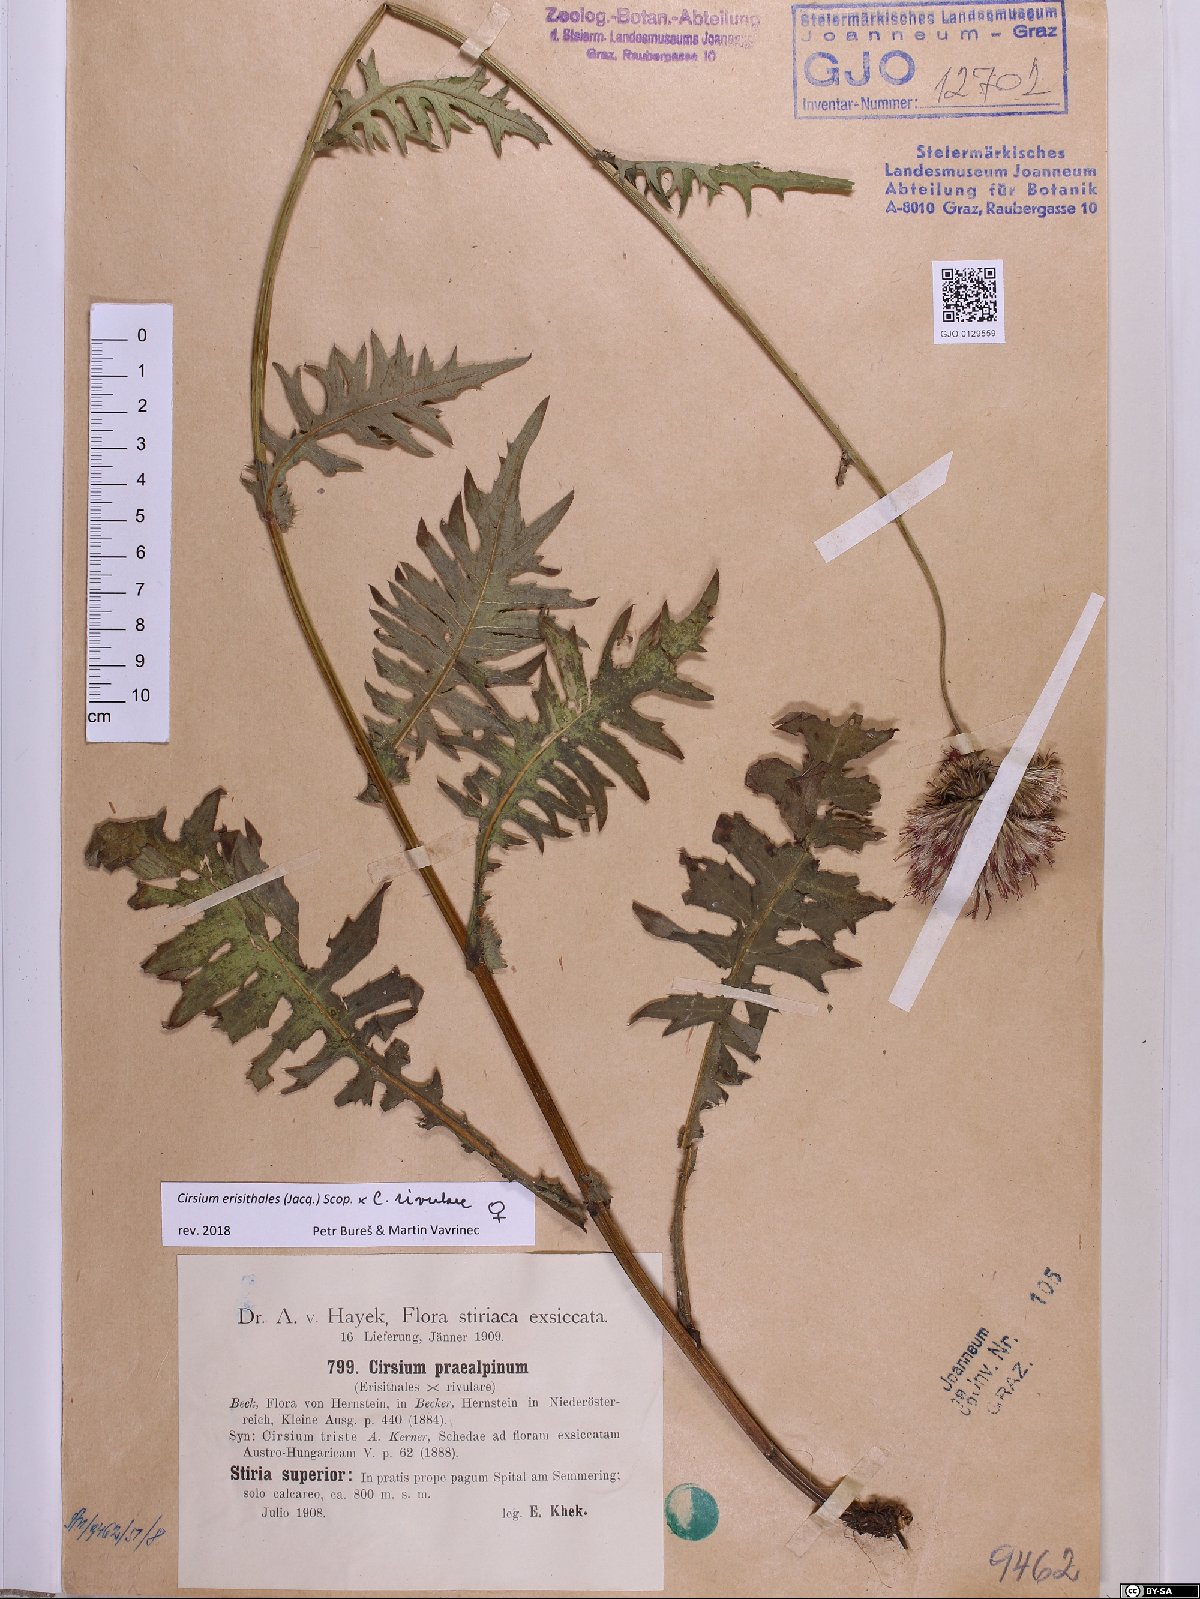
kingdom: Plantae
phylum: Tracheophyta
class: Magnoliopsida
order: Asterales
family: Asteraceae
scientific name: Asteraceae
